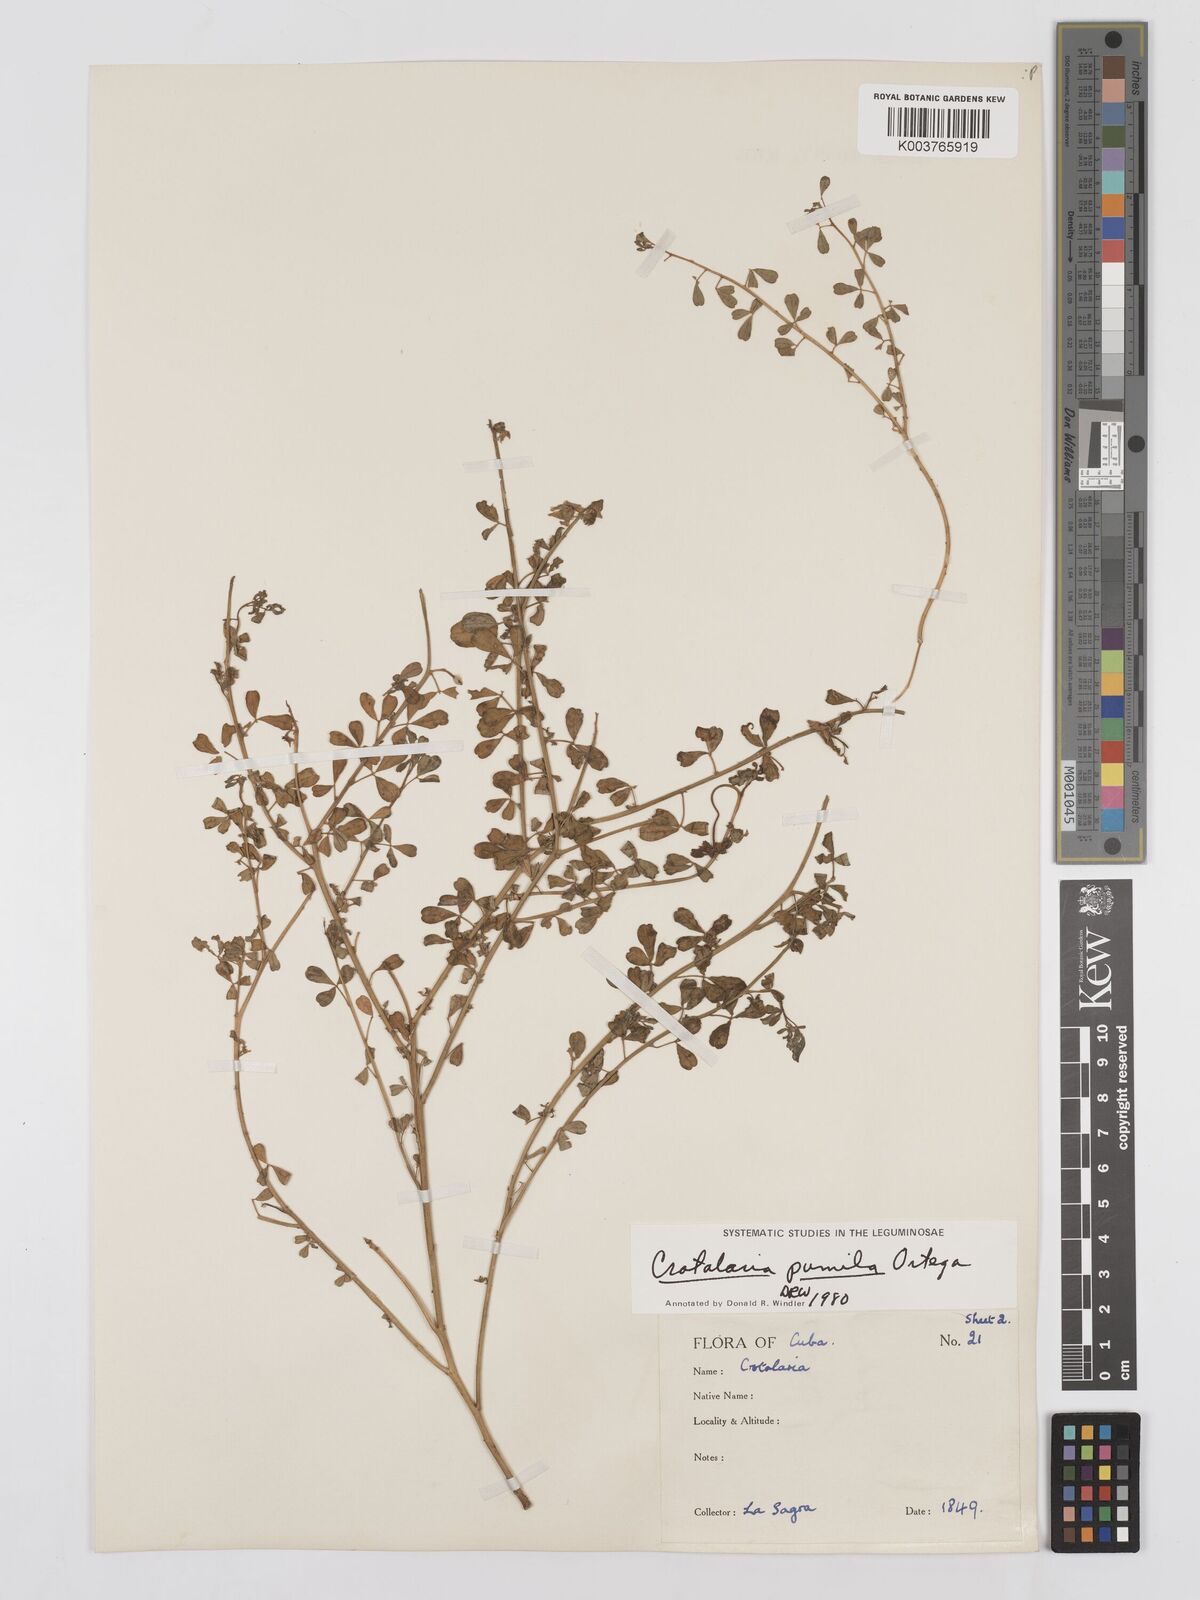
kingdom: Plantae
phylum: Tracheophyta
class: Magnoliopsida
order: Fabales
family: Fabaceae
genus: Crotalaria
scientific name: Crotalaria pumila
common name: Low rattlebox
